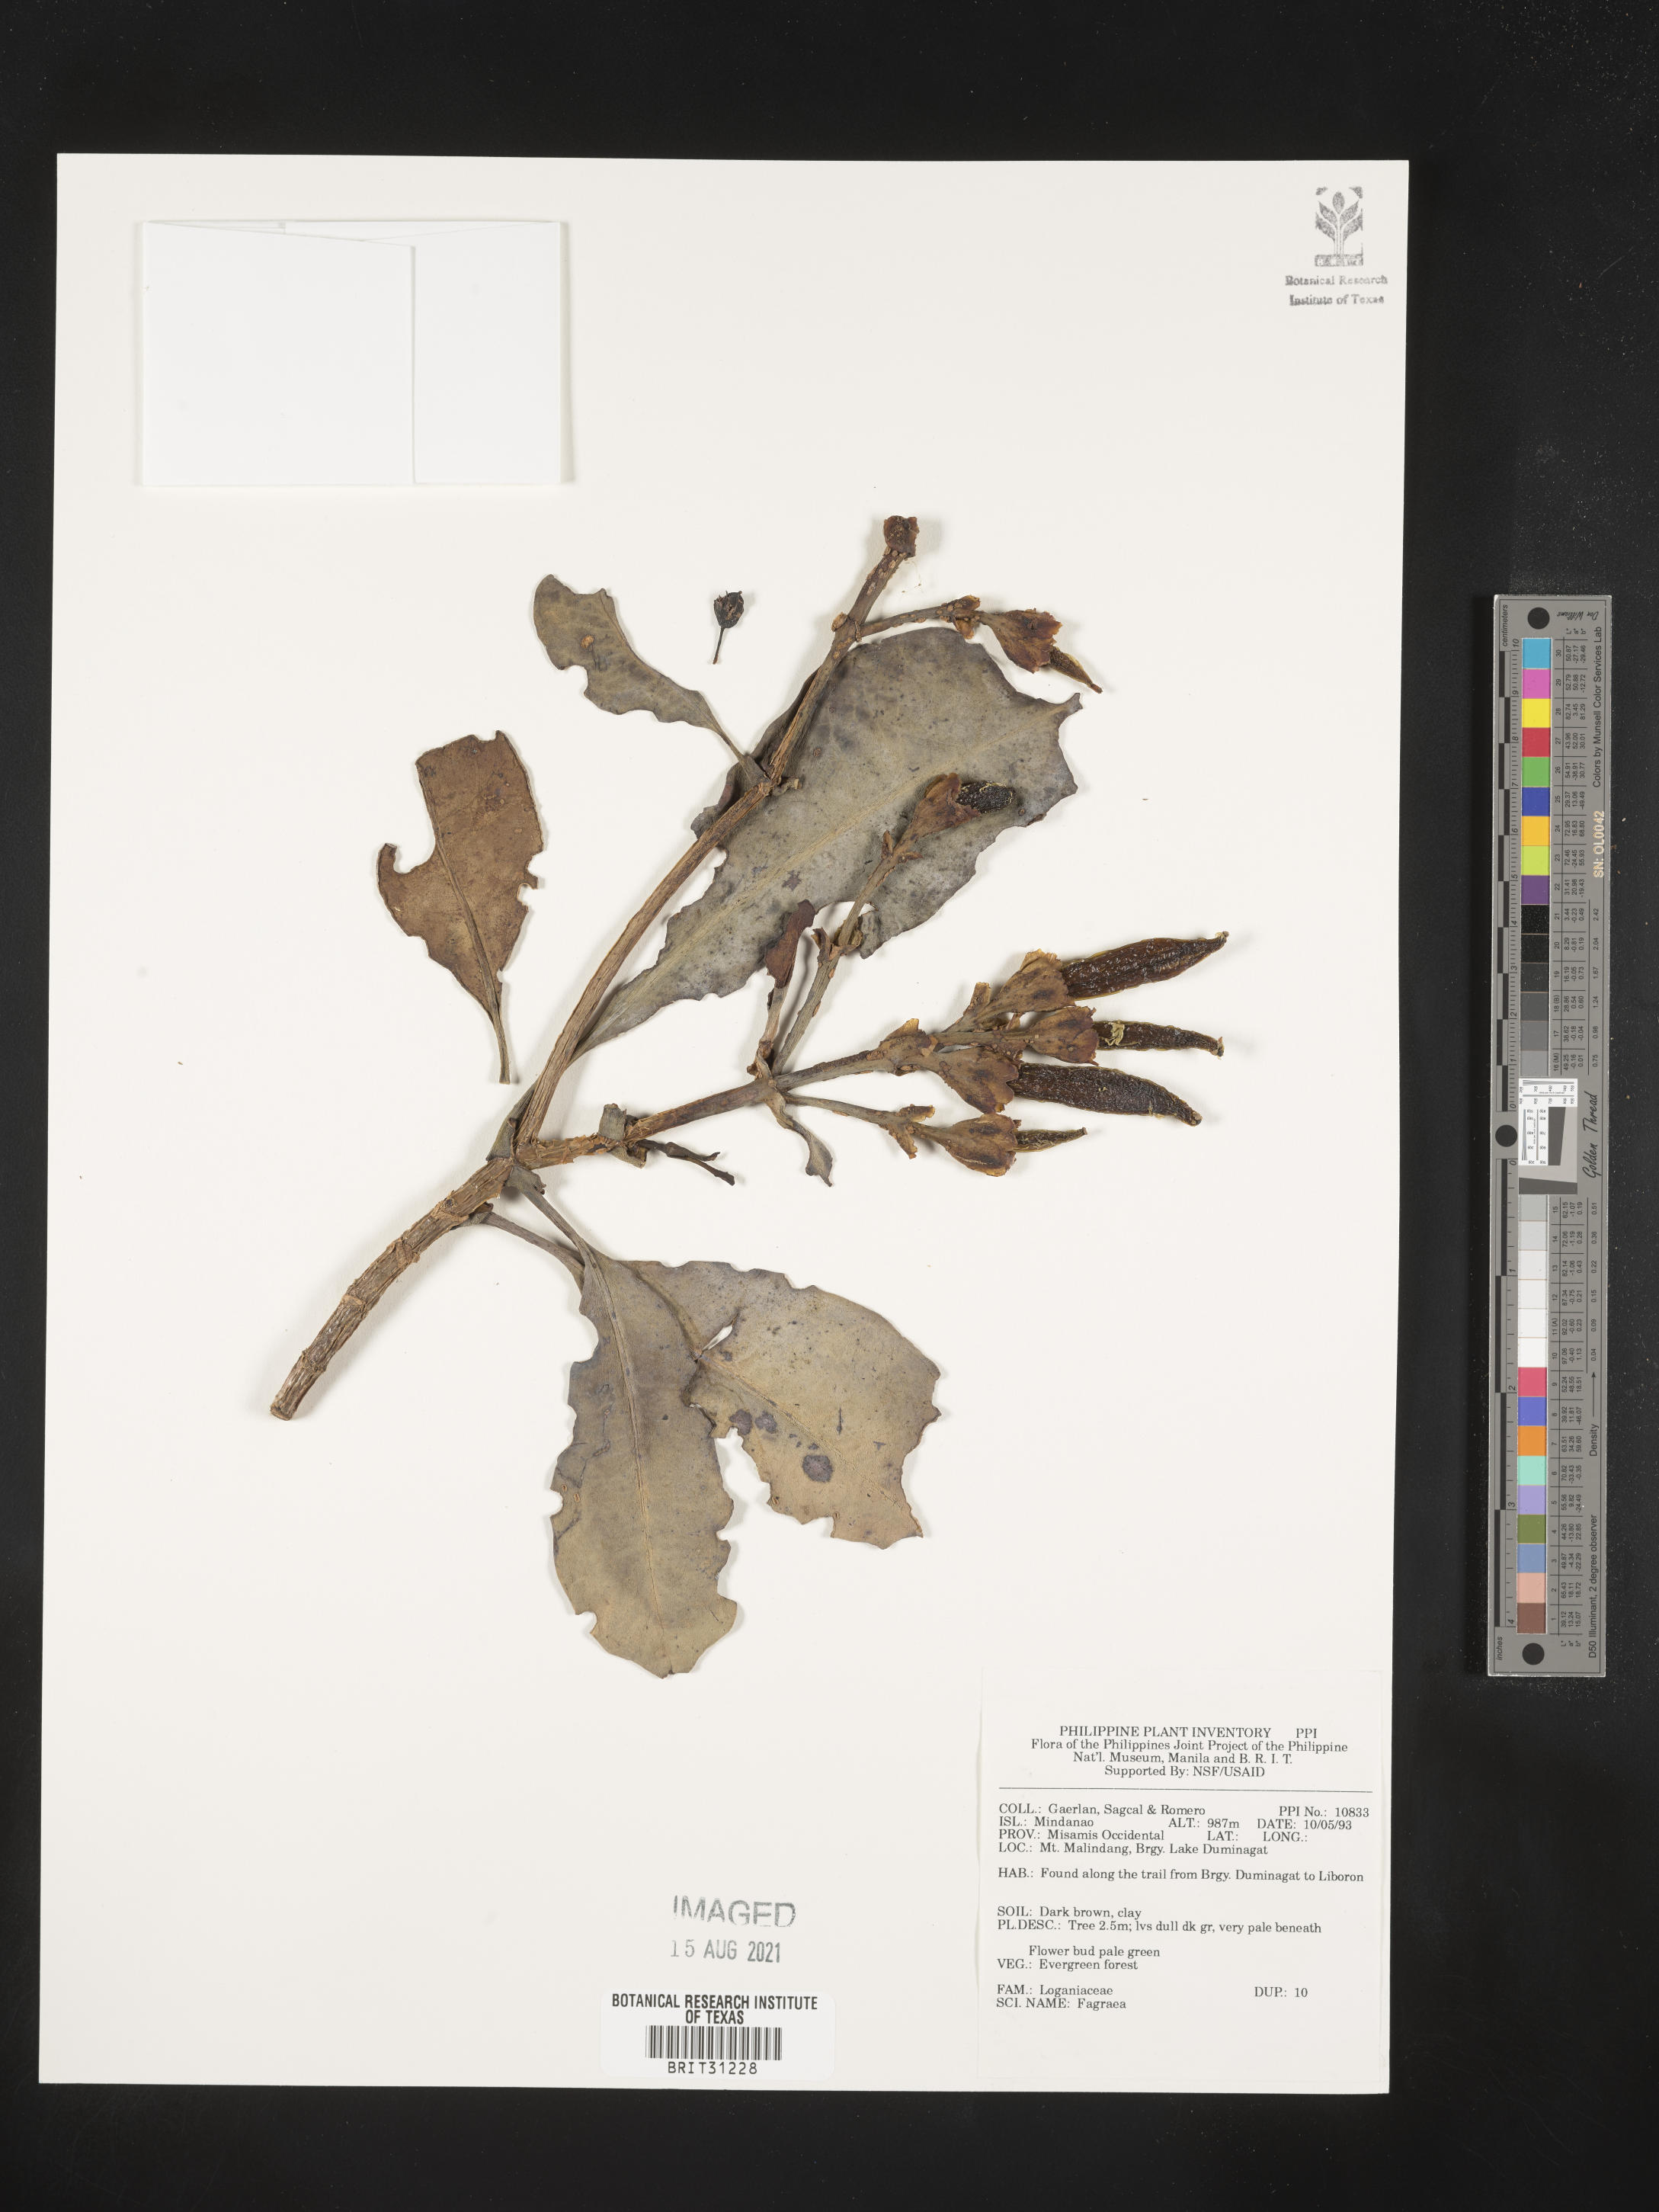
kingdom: Plantae
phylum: Tracheophyta
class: Magnoliopsida
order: Gentianales
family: Gentianaceae
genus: Fagraea
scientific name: Fagraea
